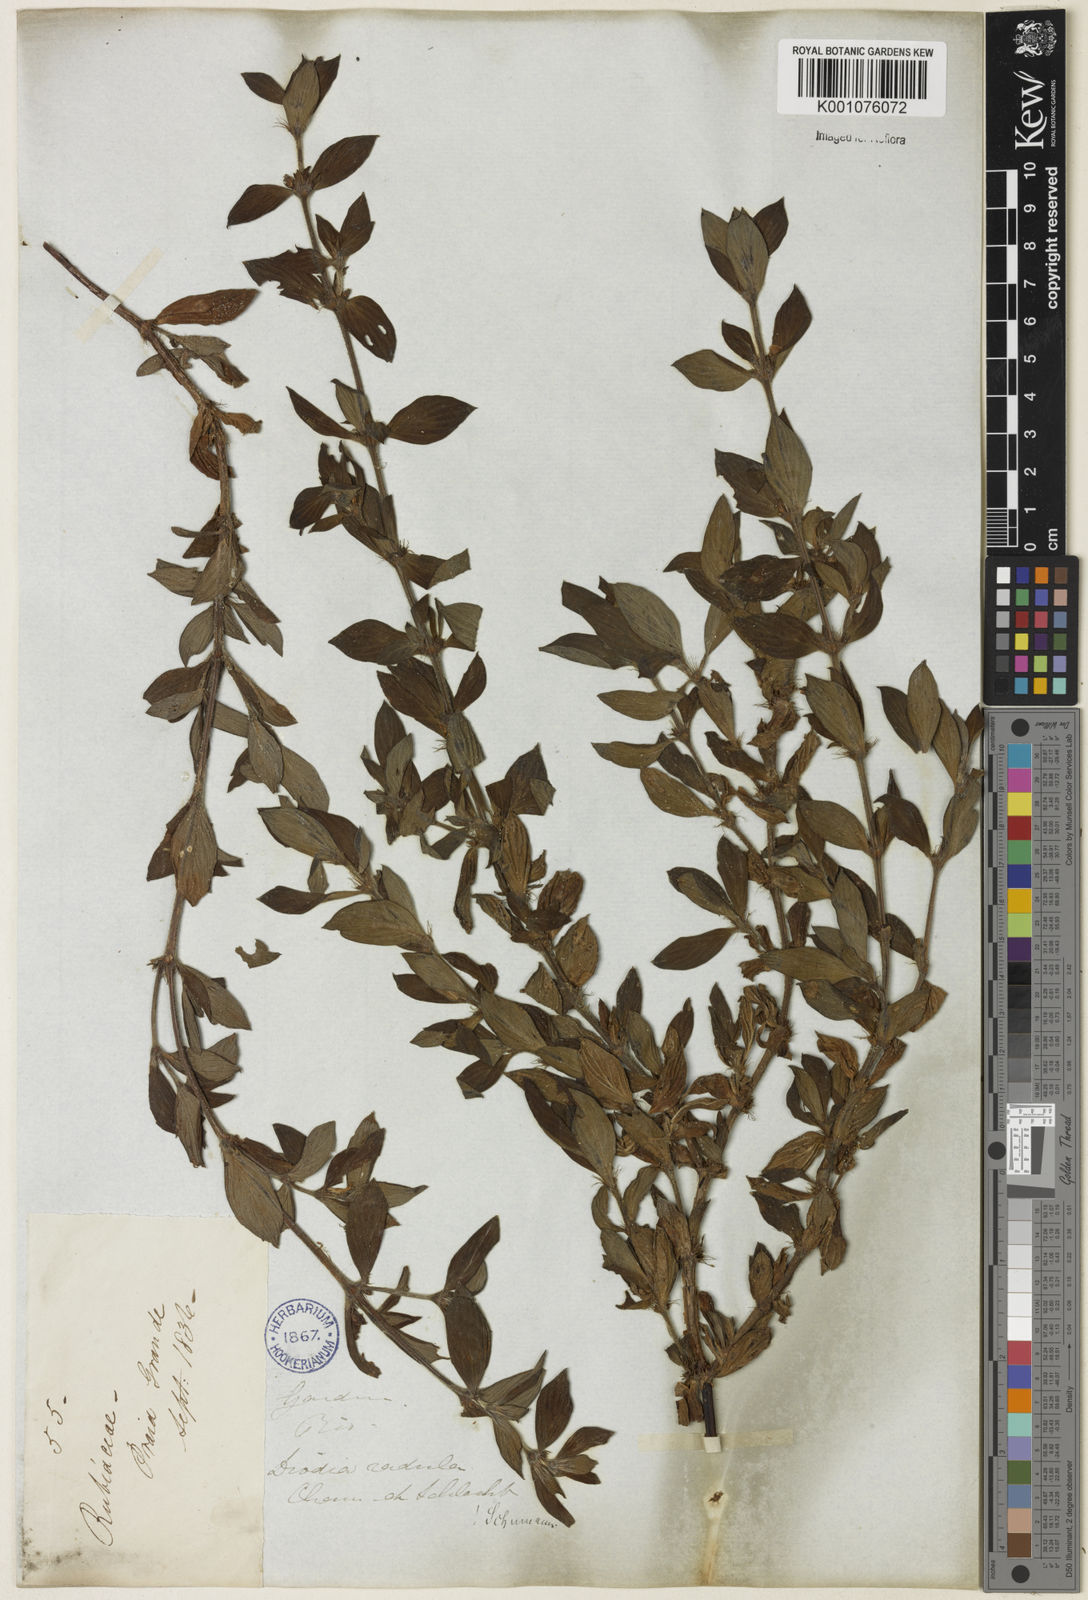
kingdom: Plantae
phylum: Tracheophyta
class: Magnoliopsida
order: Gentianales
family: Rubiaceae
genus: Hexasepalum
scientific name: Hexasepalum radulum
